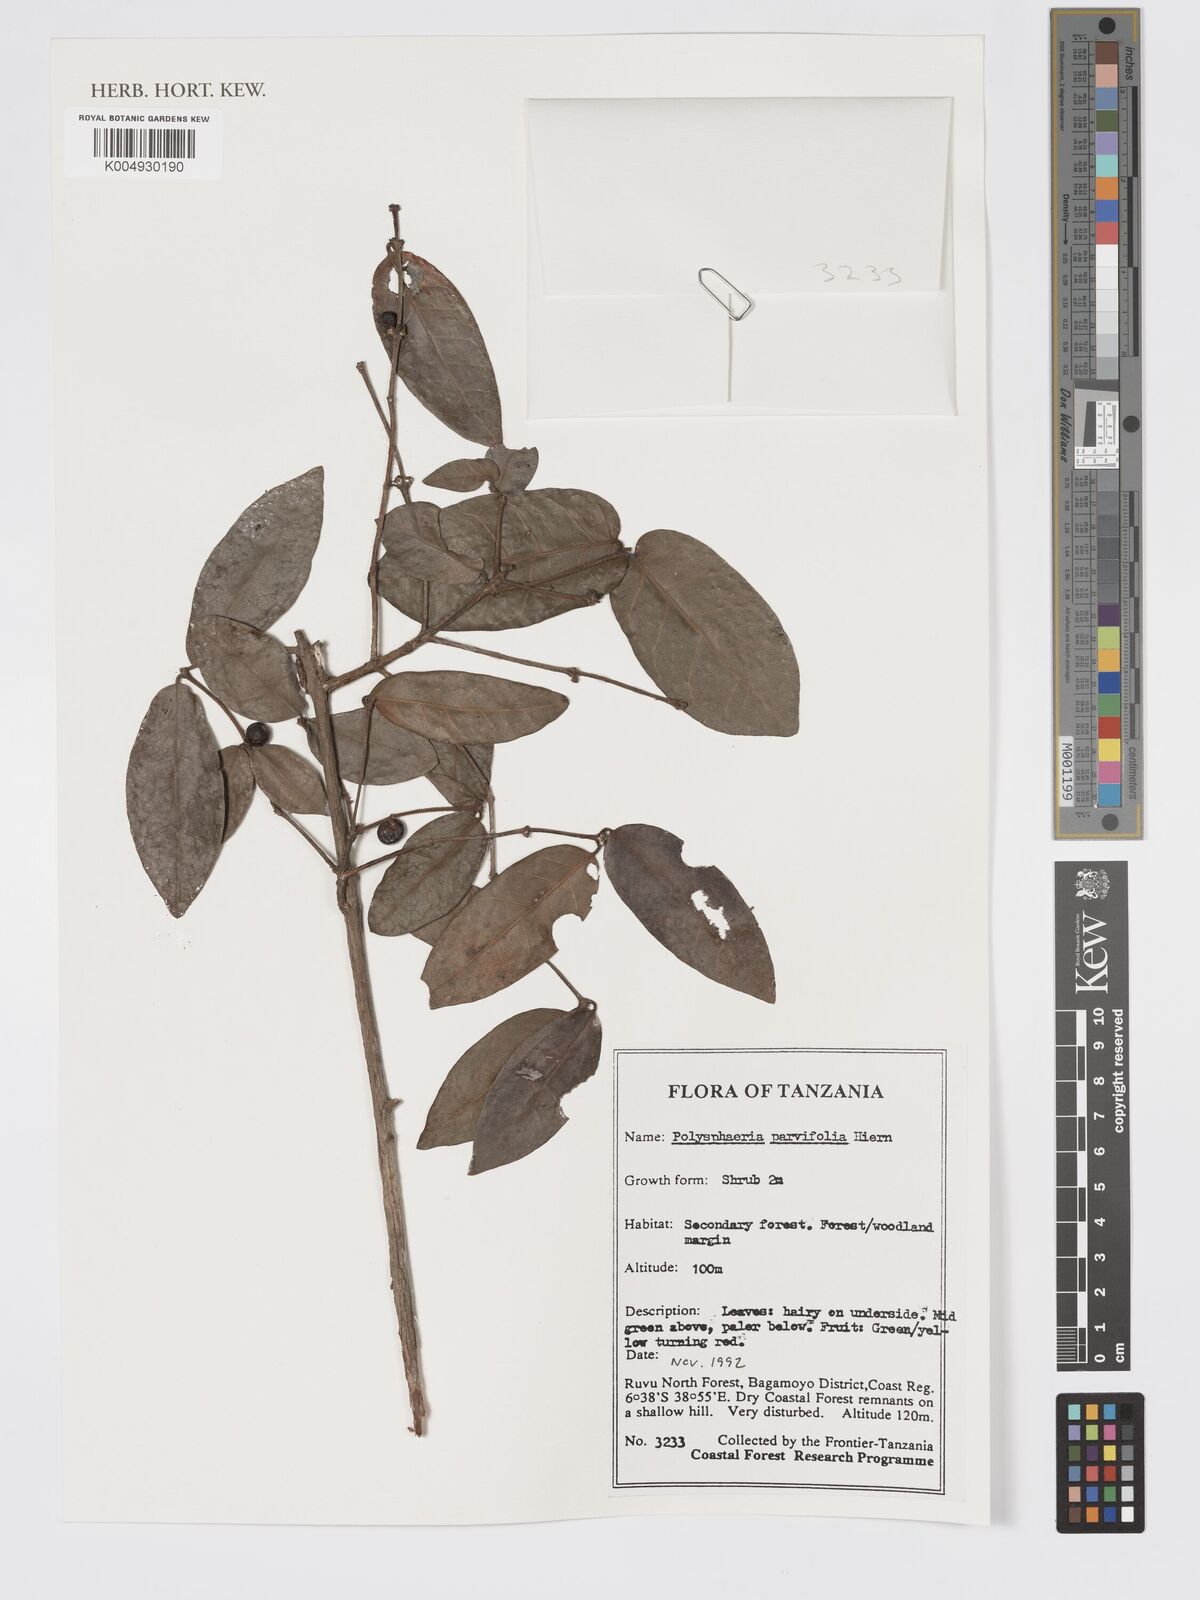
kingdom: Plantae
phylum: Tracheophyta
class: Magnoliopsida
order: Gentianales
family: Rubiaceae
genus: Polysphaeria
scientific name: Polysphaeria parvifolia
